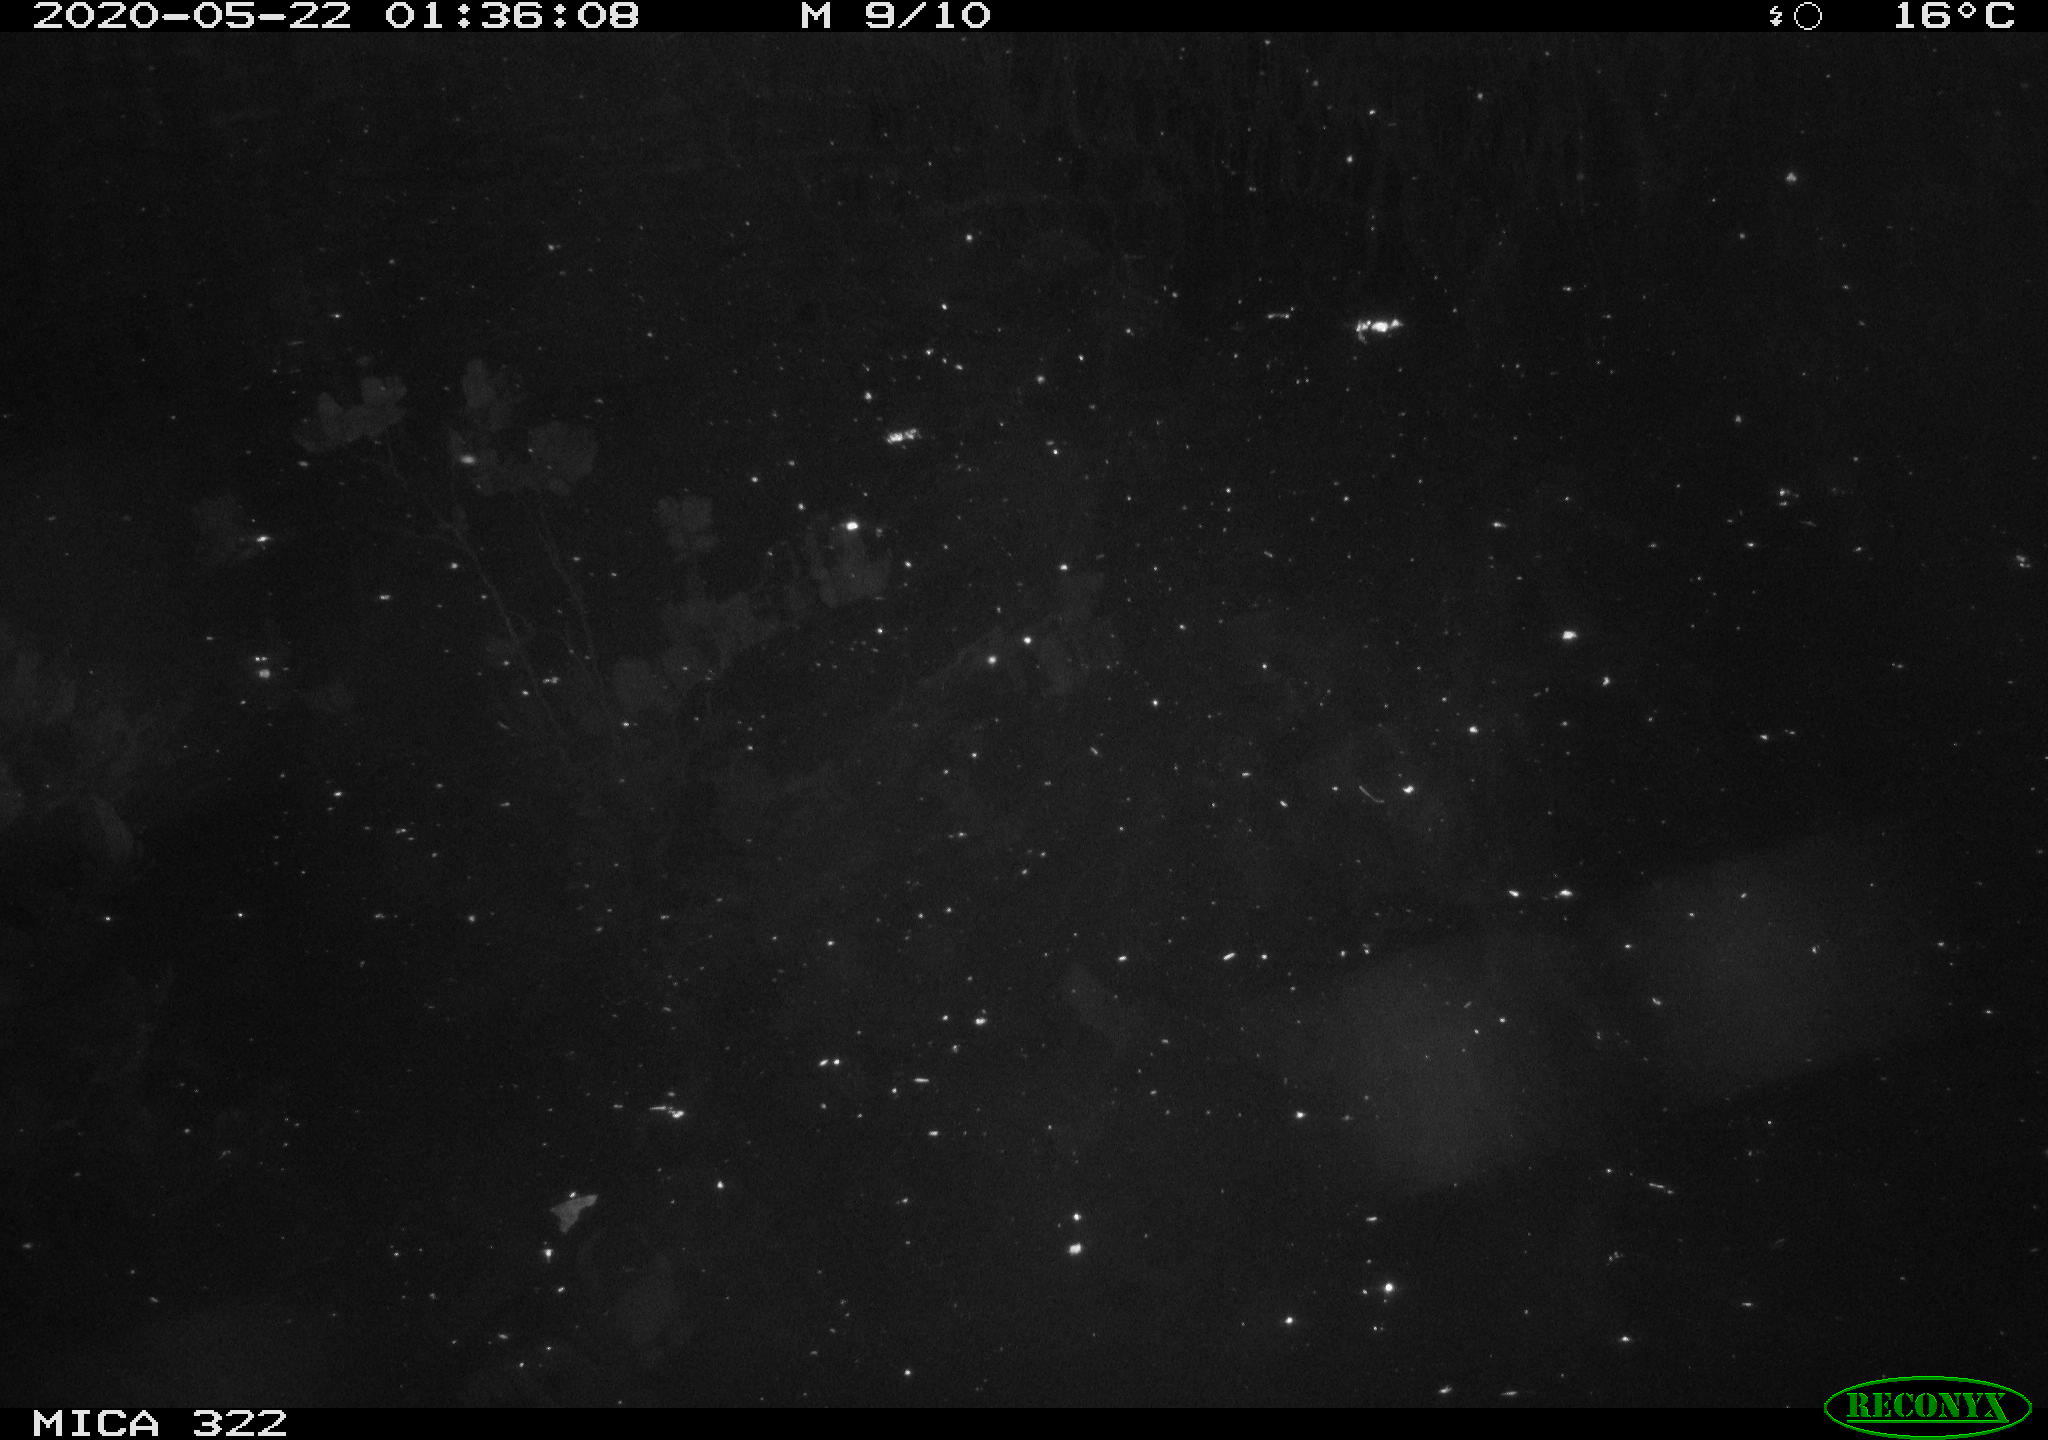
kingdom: Animalia
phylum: Chordata
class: Mammalia
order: Rodentia
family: Muridae
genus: Rattus
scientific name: Rattus norvegicus
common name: Brown rat
